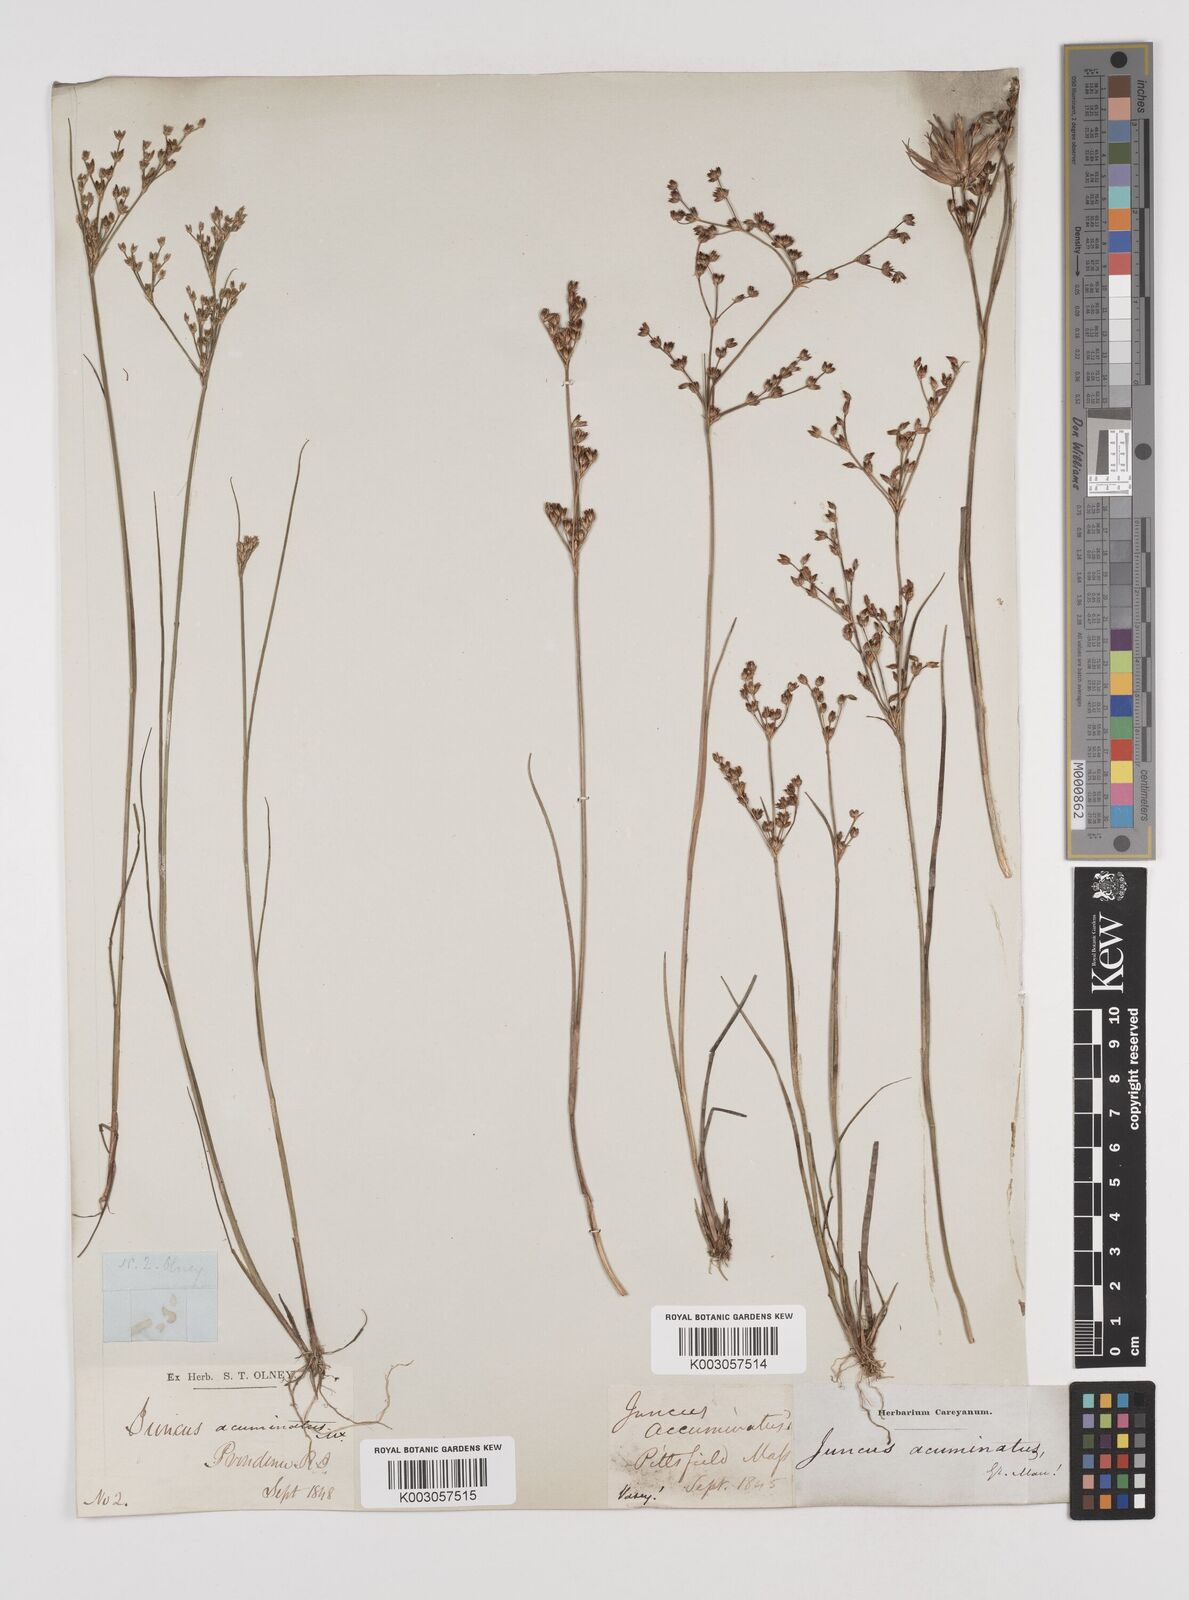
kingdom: Plantae
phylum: Tracheophyta
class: Liliopsida
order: Poales
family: Juncaceae
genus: Juncus
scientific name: Juncus debilis
